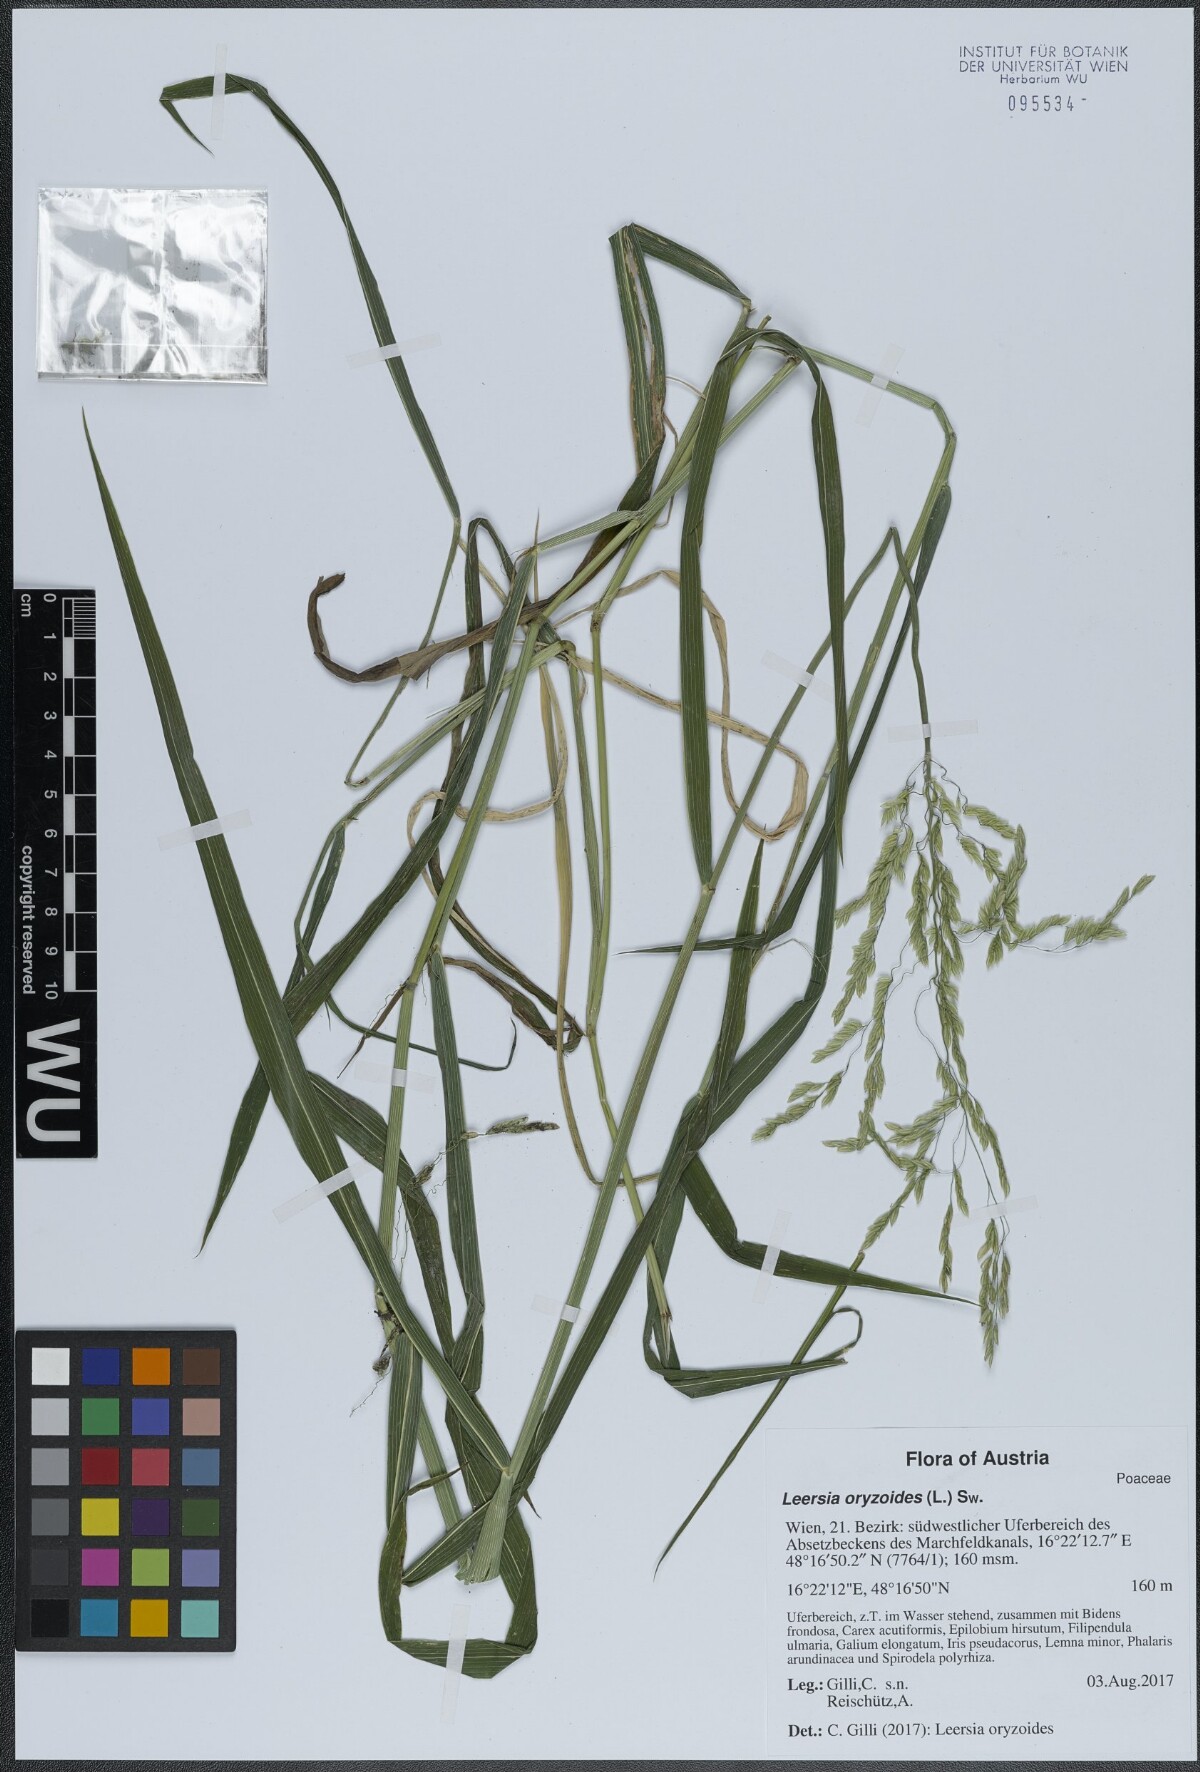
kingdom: Plantae
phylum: Tracheophyta
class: Liliopsida
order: Poales
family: Poaceae
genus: Leersia
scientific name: Leersia oryzoides
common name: Cut-grass
